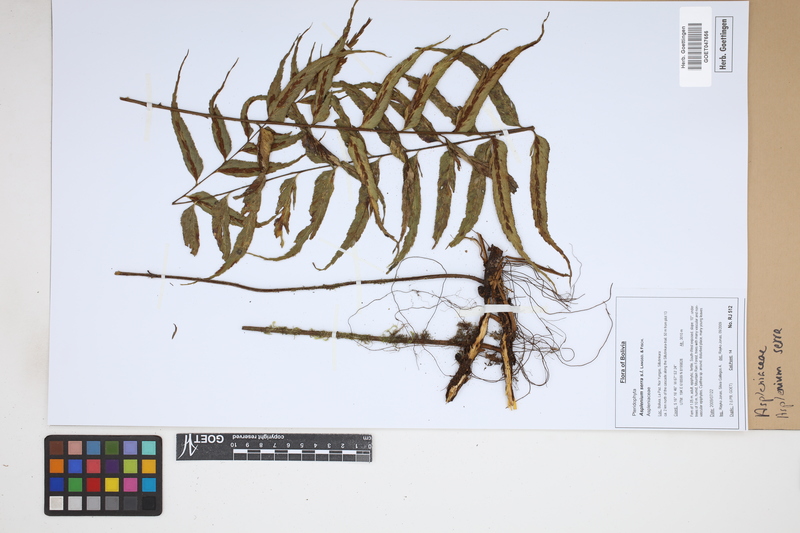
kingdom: Plantae
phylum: Tracheophyta
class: Polypodiopsida
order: Polypodiales
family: Aspleniaceae
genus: Asplenium
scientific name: Asplenium serra
